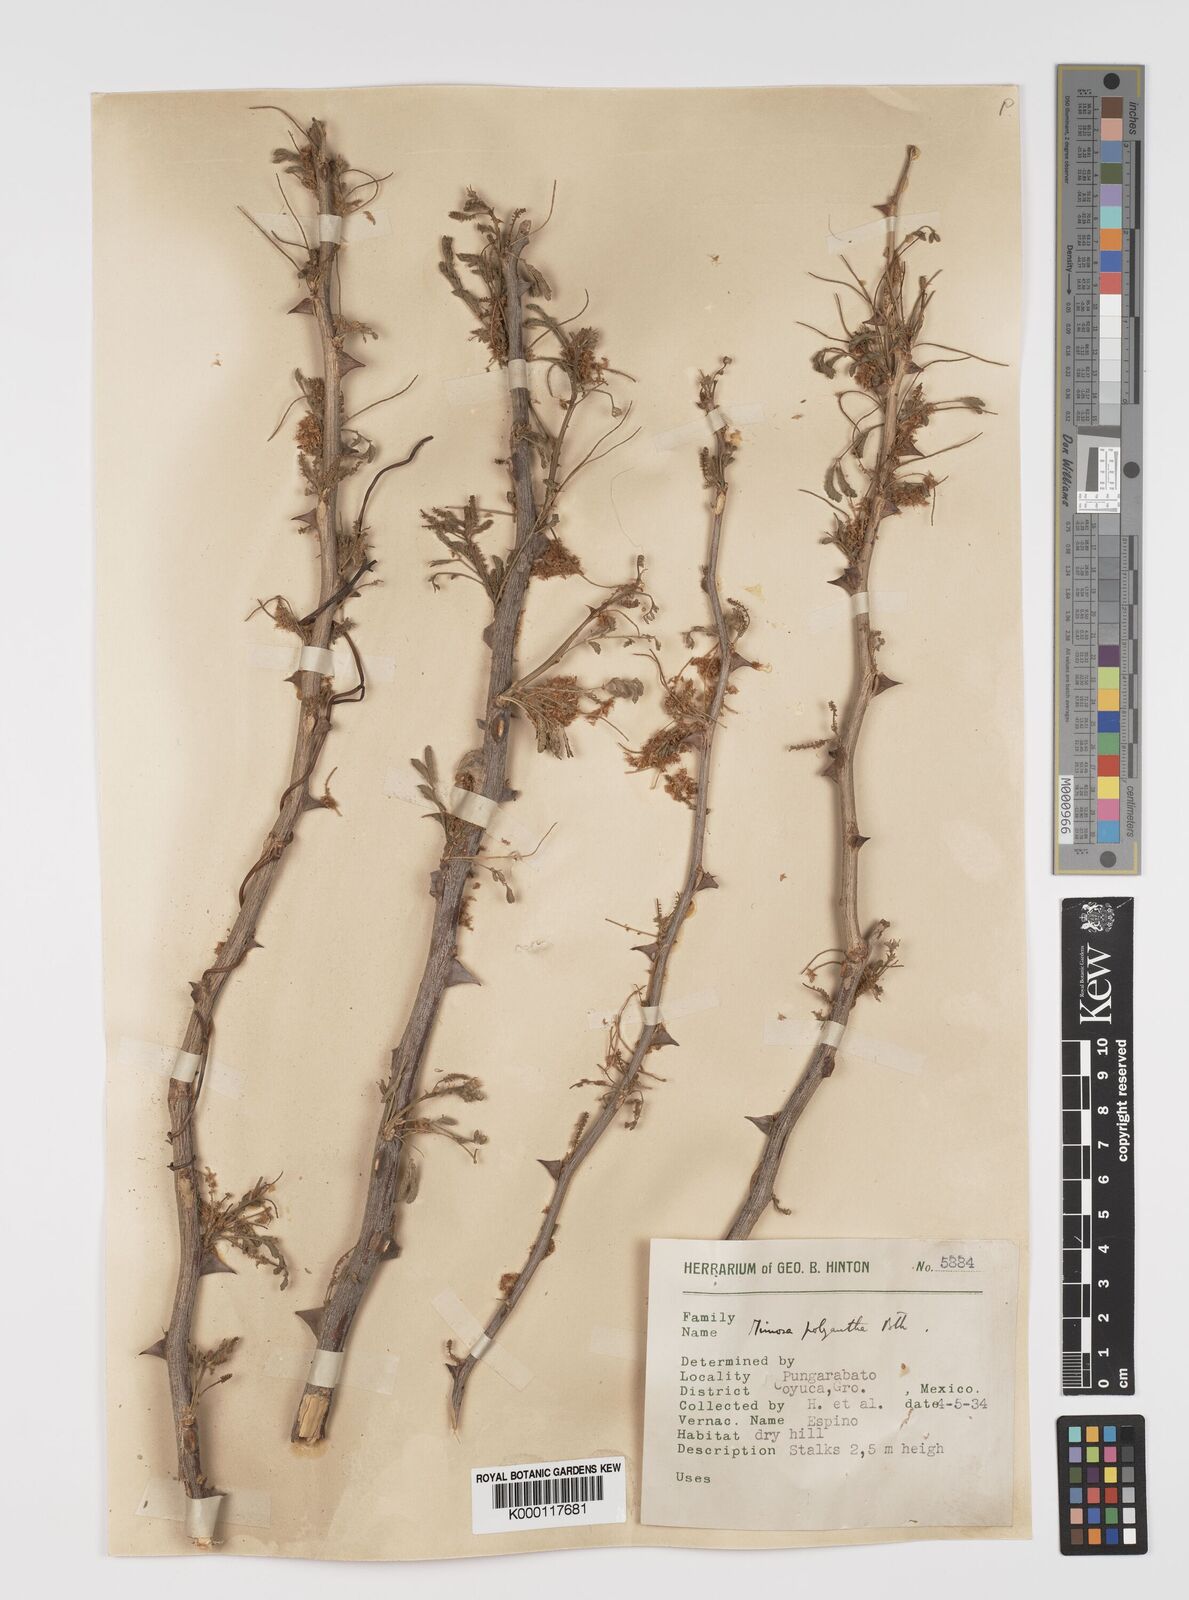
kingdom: Plantae
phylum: Tracheophyta
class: Magnoliopsida
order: Fabales
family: Fabaceae
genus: Mimosa
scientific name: Mimosa polyantha
